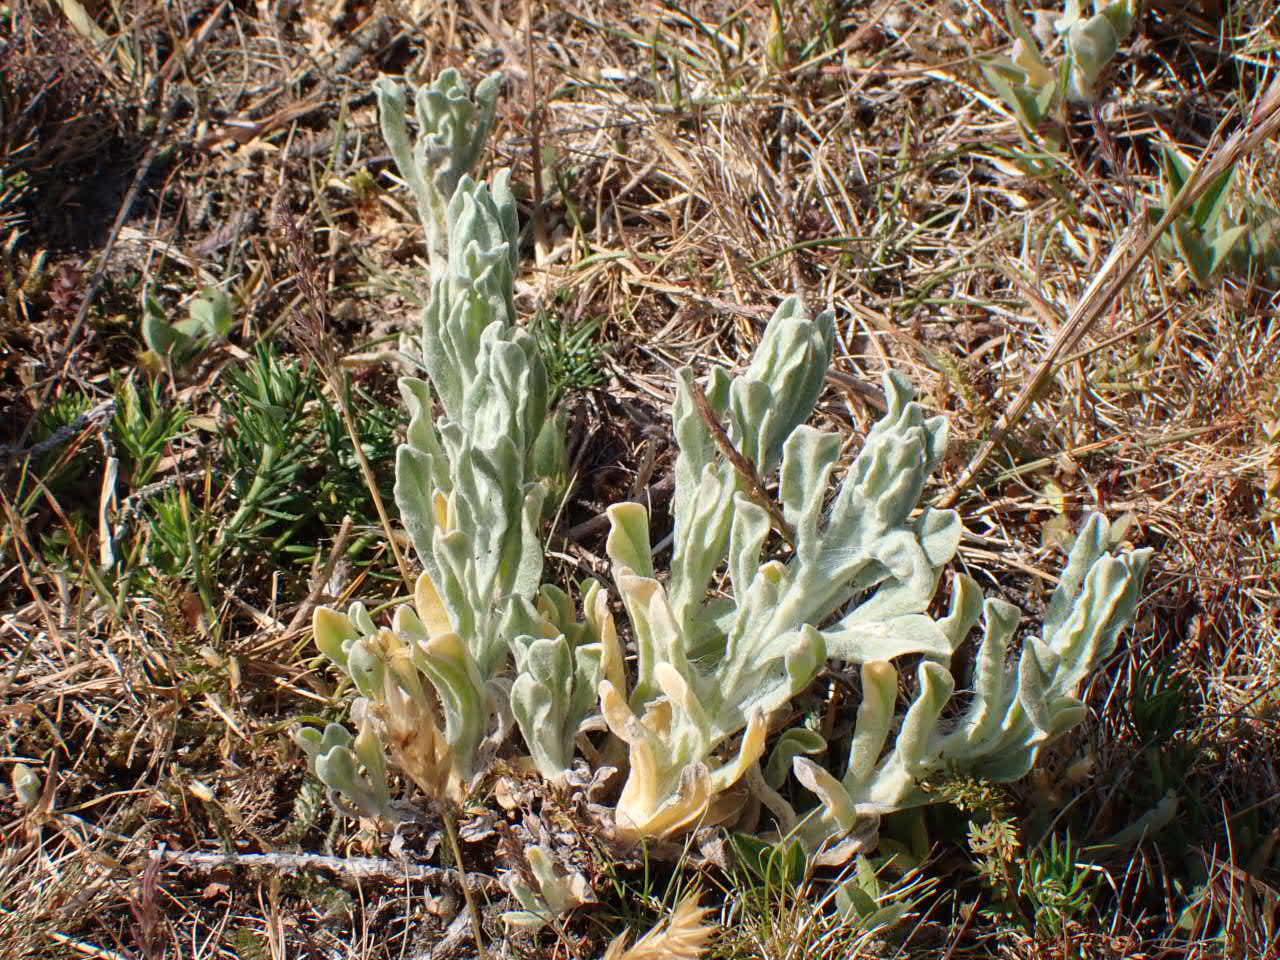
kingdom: Plantae
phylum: Tracheophyta
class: Magnoliopsida
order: Asterales
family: Asteraceae
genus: Helichrysum
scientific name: Helichrysum arenarium
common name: Gul evighedsblomst
